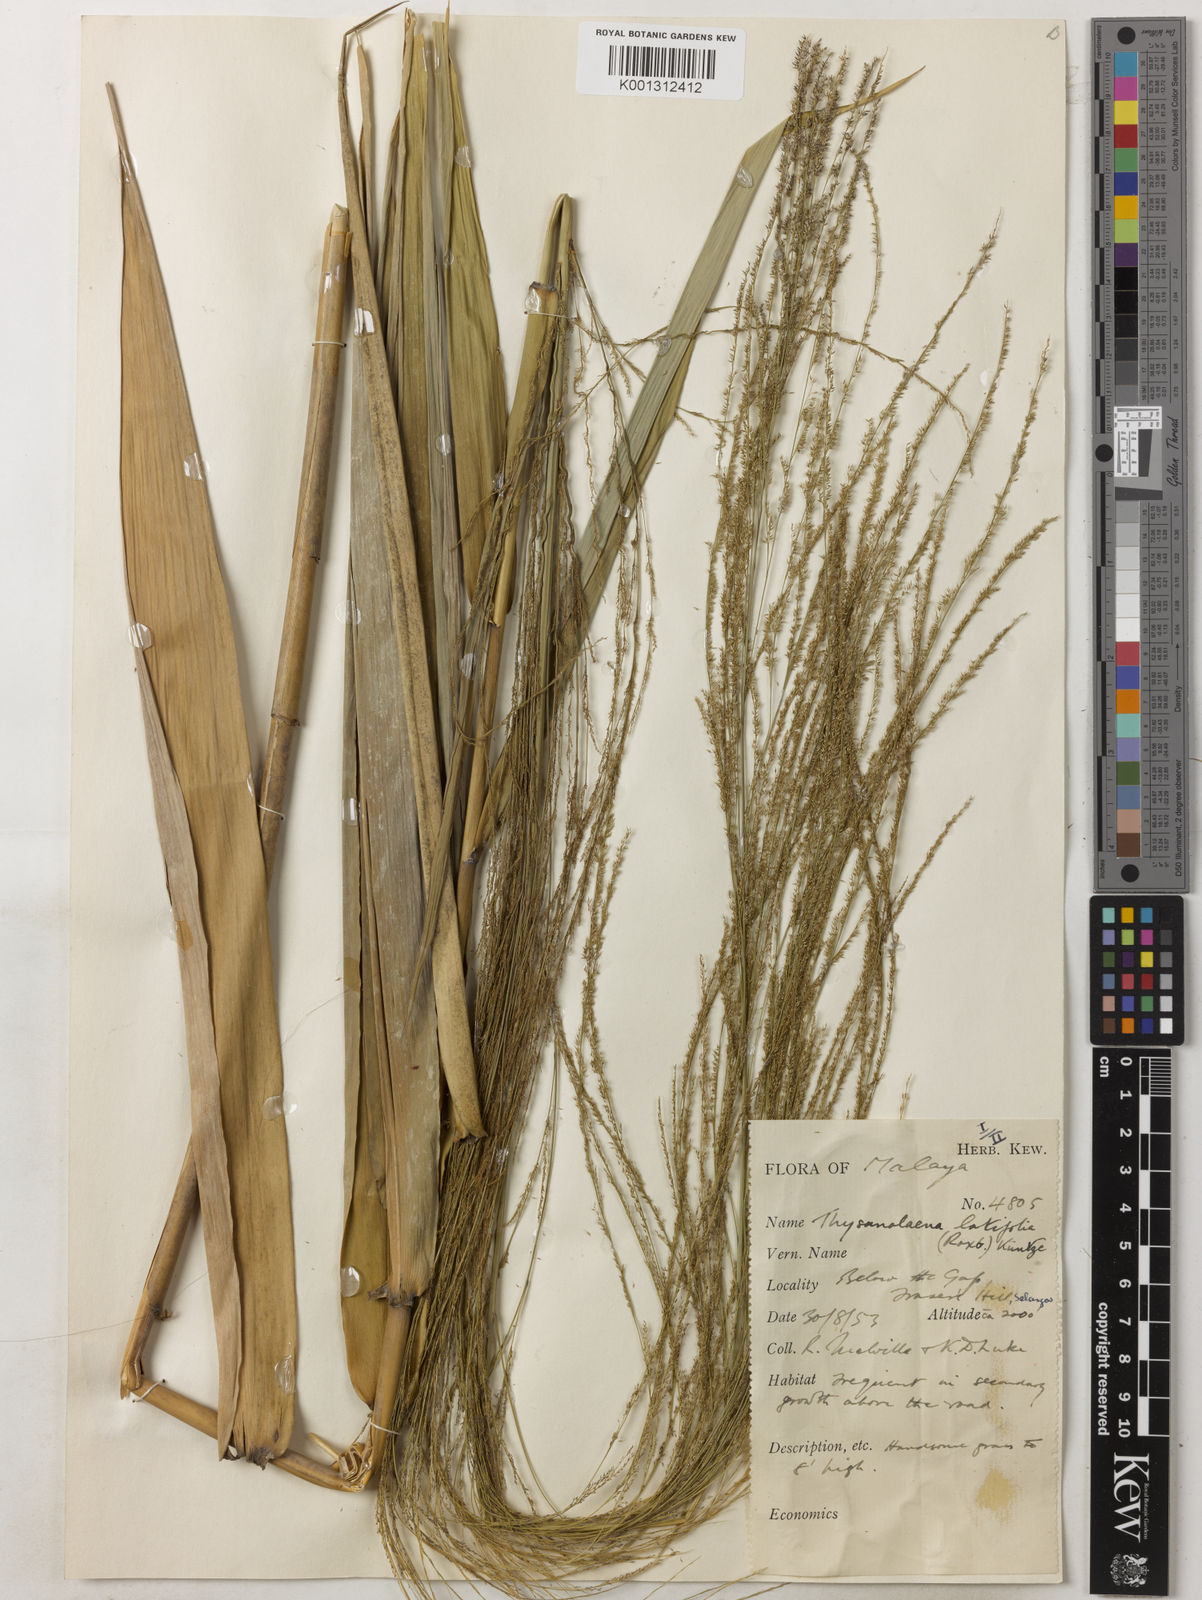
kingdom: Plantae
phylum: Tracheophyta
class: Liliopsida
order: Poales
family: Poaceae
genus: Dactyloctenium
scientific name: Dactyloctenium aegyptium
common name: Egyptian grass
